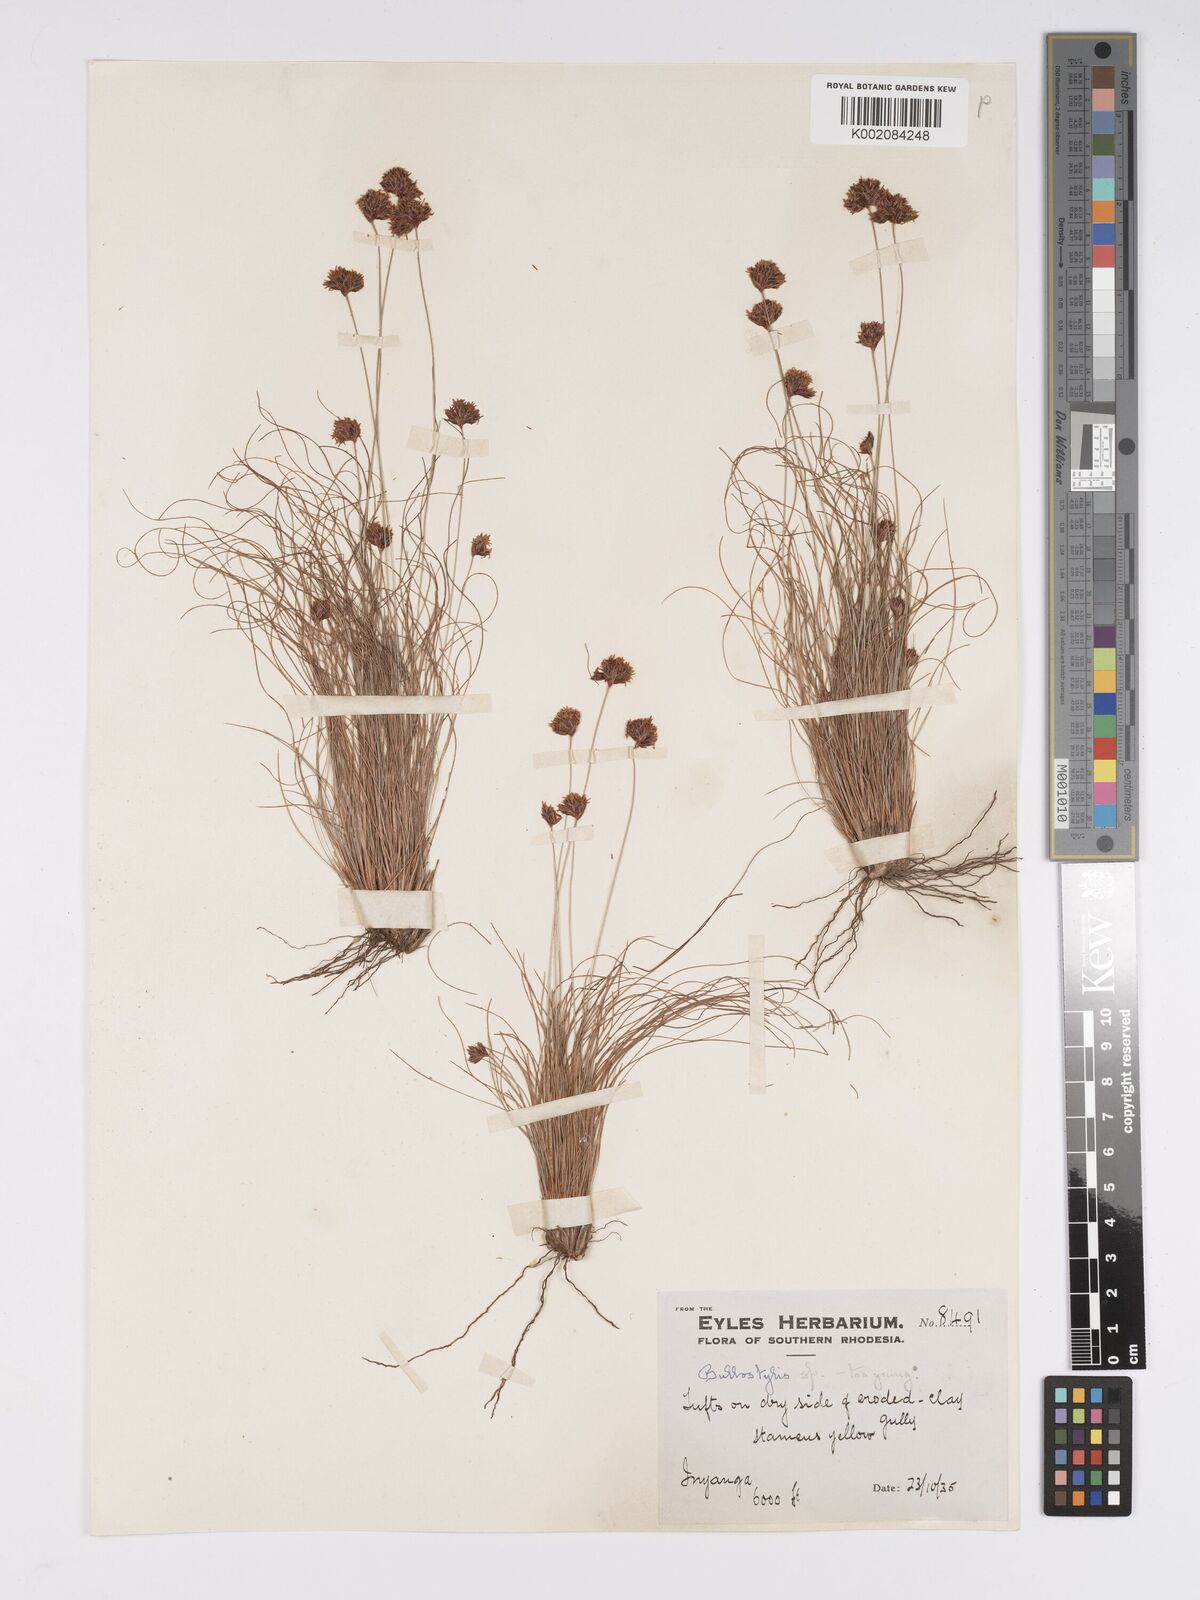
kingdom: Plantae
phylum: Tracheophyta
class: Liliopsida
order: Poales
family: Cyperaceae
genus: Bulbostylis
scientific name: Bulbostylis
